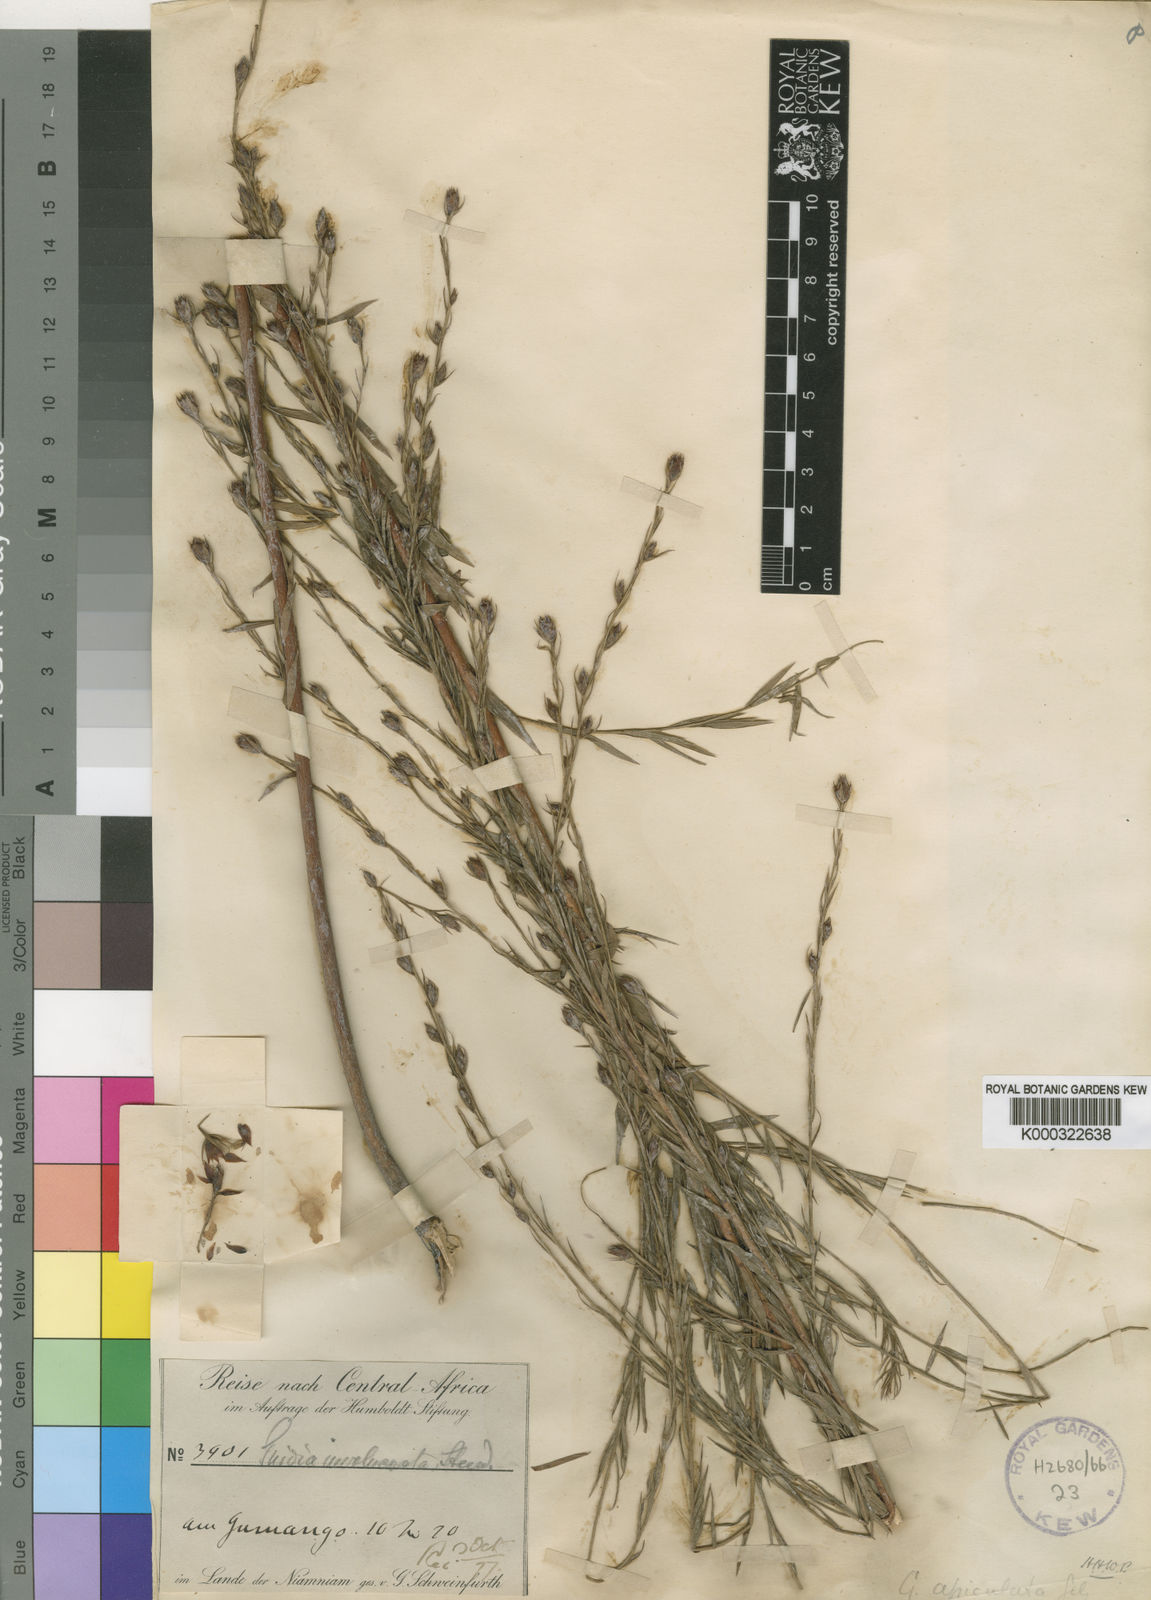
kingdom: Plantae
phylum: Tracheophyta
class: Magnoliopsida
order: Malvales
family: Thymelaeaceae
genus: Gnidia
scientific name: Gnidia apiculata
